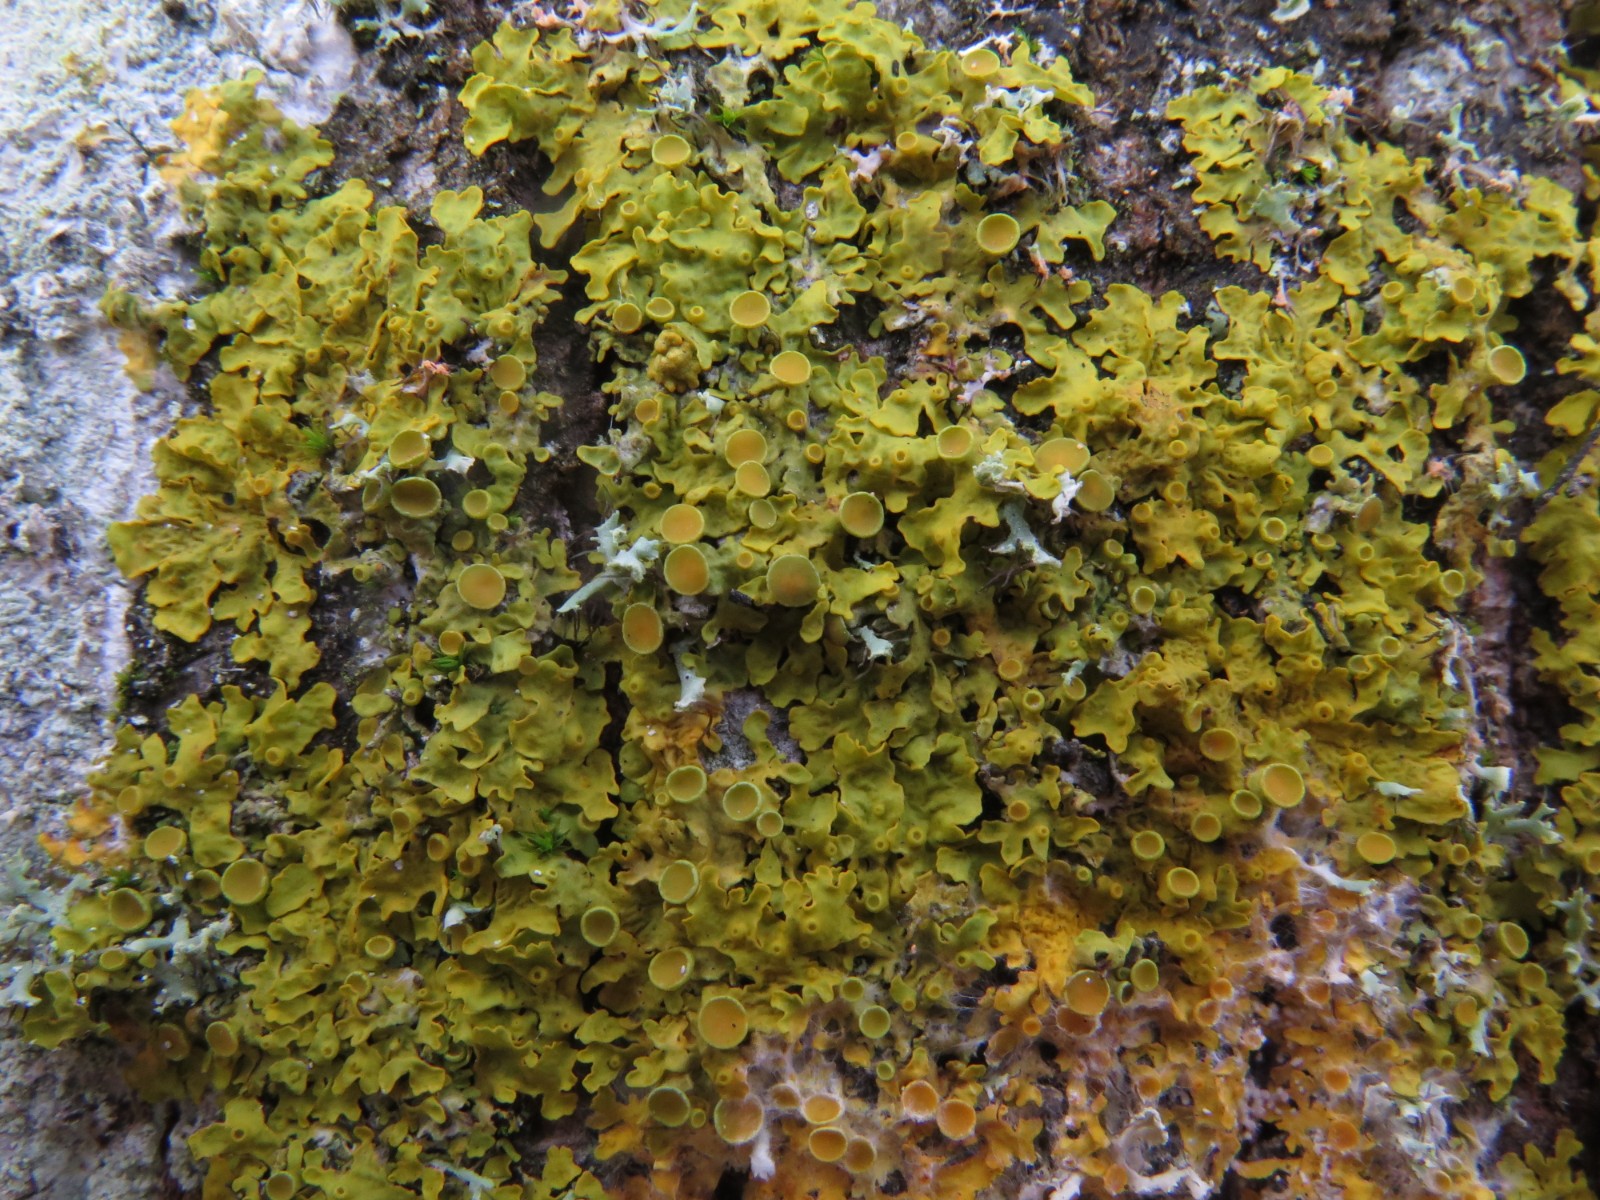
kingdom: Fungi
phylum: Ascomycota
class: Lecanoromycetes
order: Teloschistales
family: Teloschistaceae
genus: Xanthoria
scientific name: Xanthoria parietina
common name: almindelig væggelav
